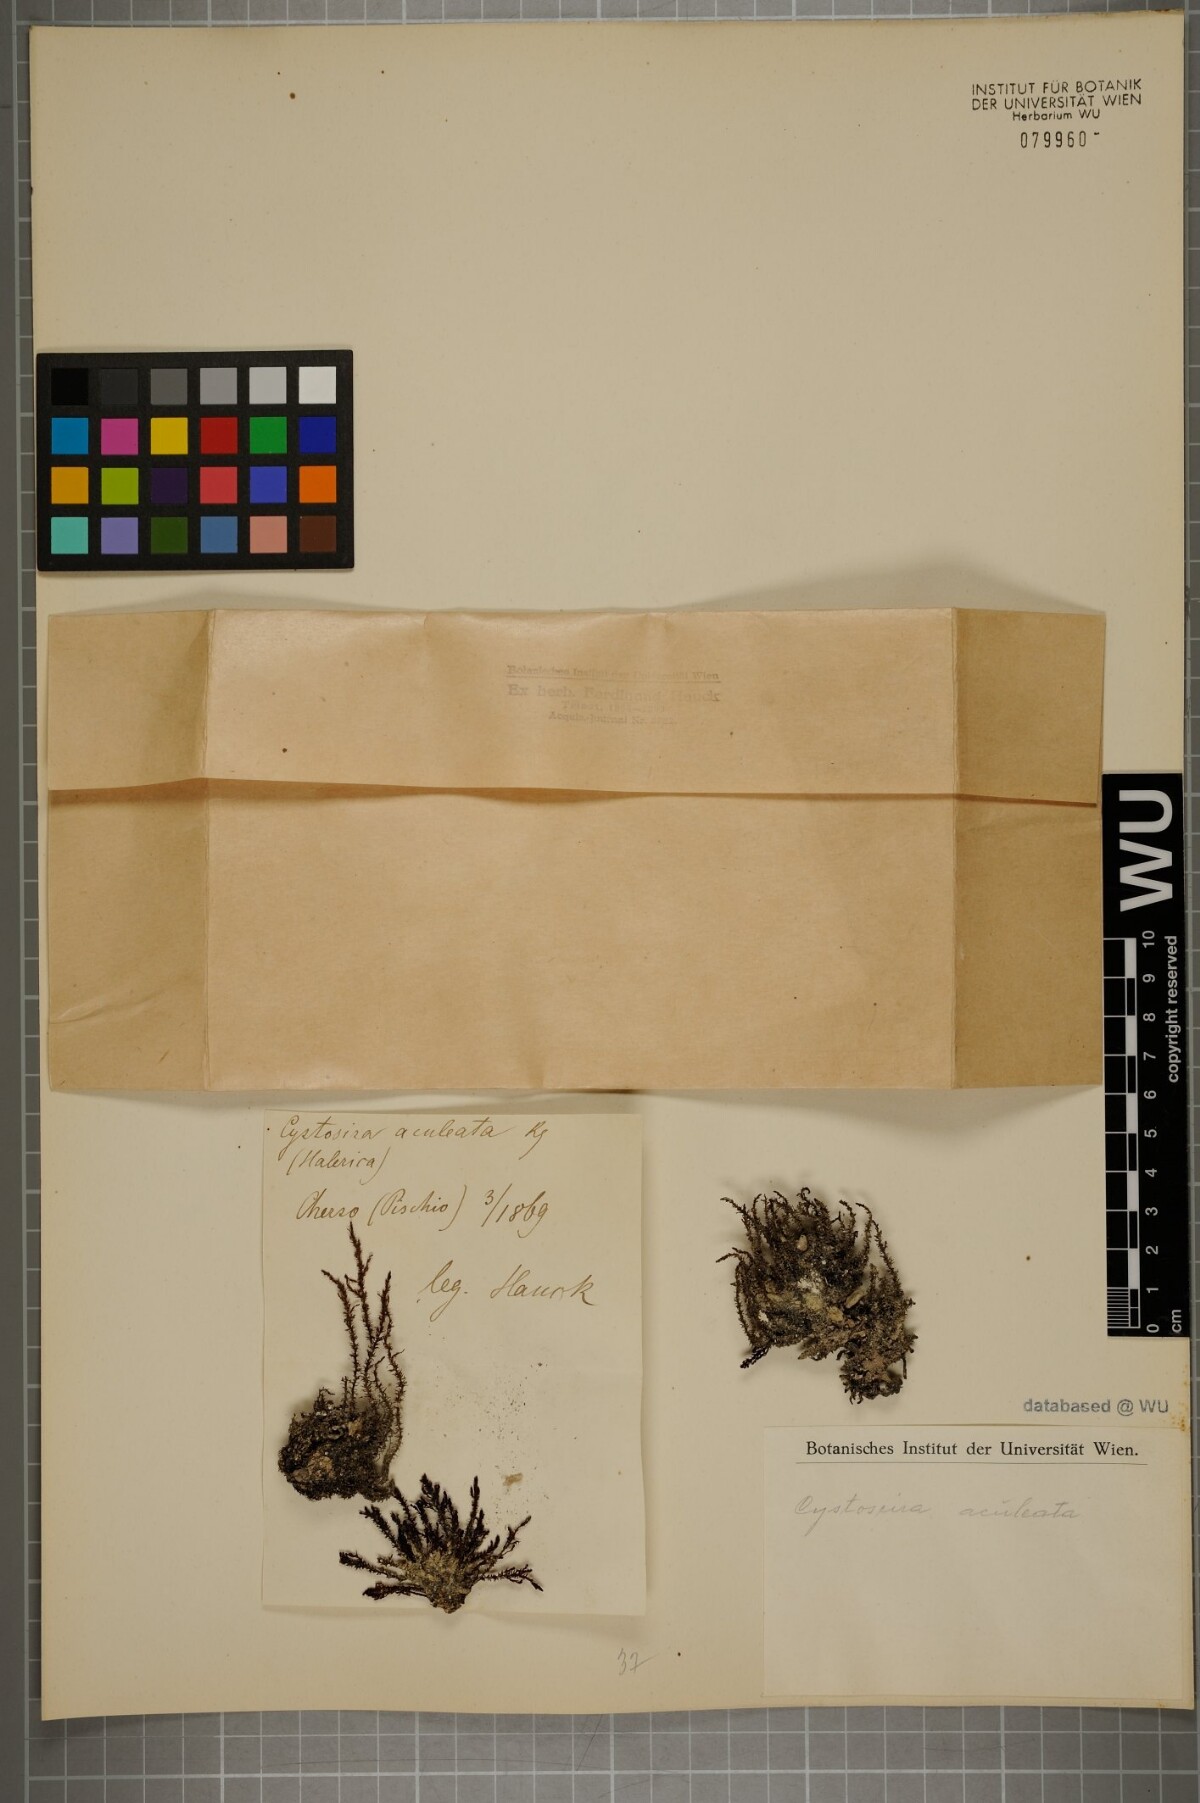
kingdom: Chromista
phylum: Ochrophyta
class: Phaeophyceae
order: Fucales
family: Sargassaceae
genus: Cystoseira
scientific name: Cystoseira
